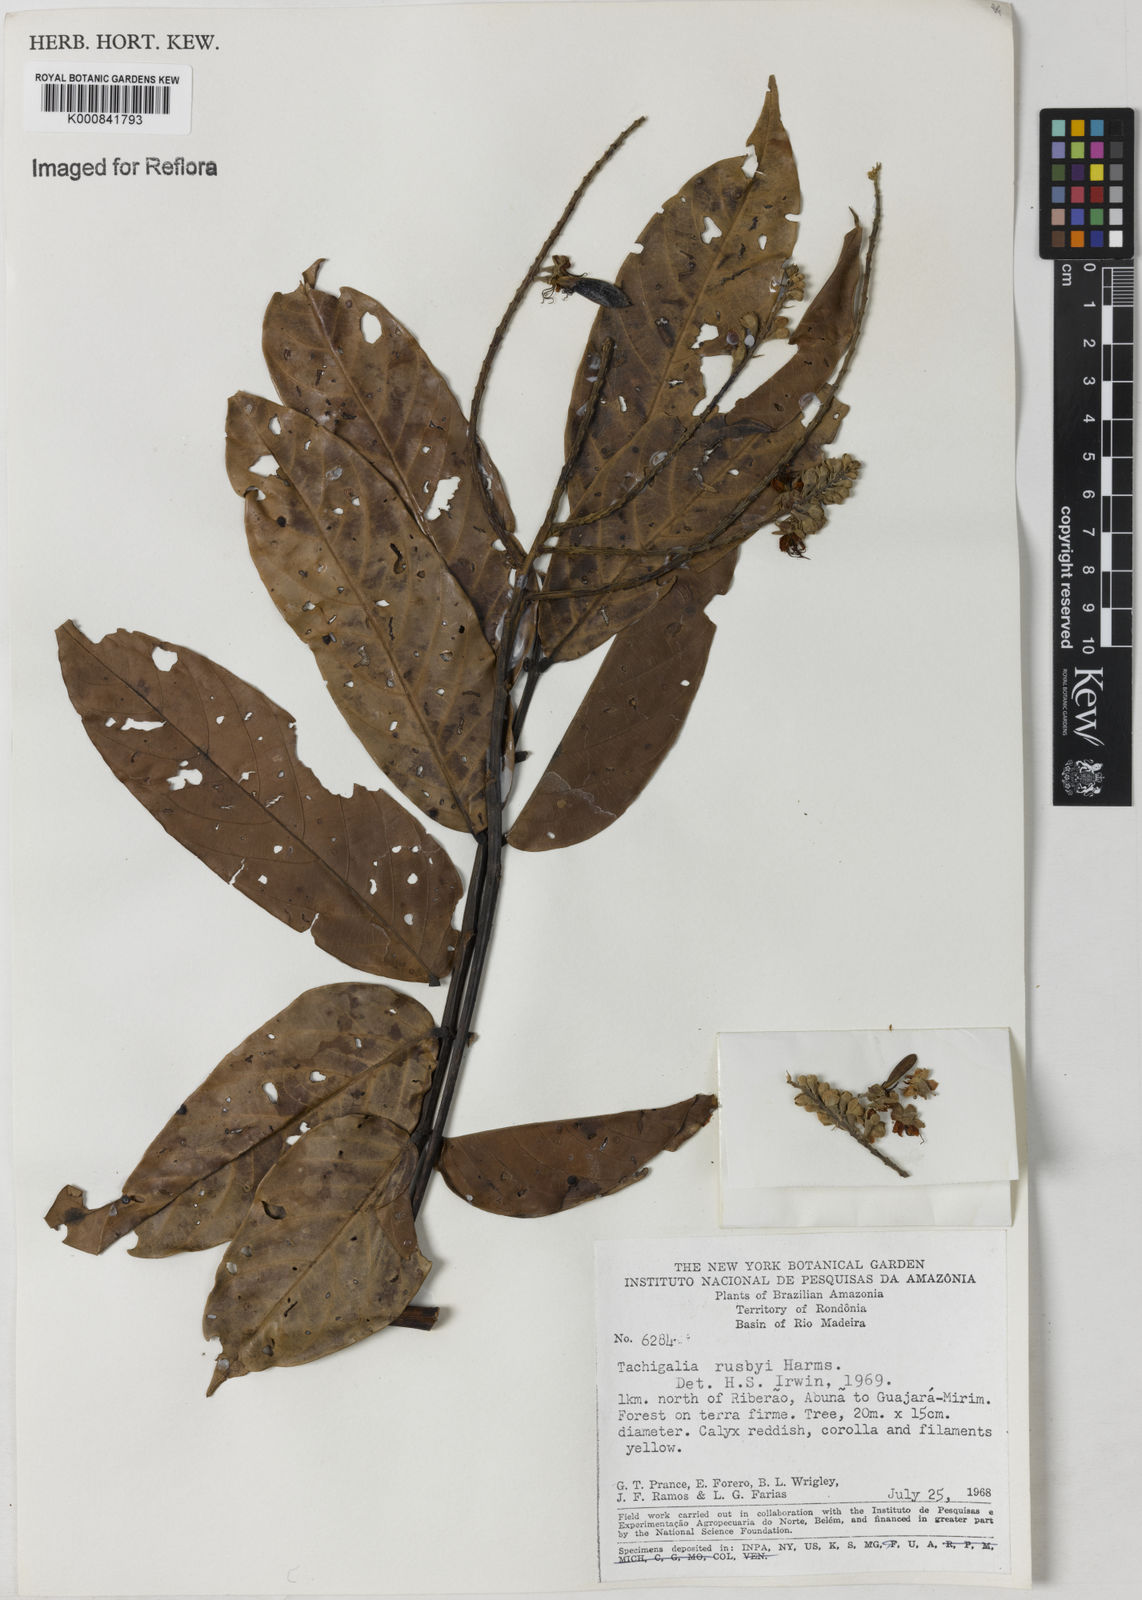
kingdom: Plantae
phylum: Tracheophyta
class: Magnoliopsida
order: Fabales
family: Fabaceae
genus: Tachigali
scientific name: Tachigali paniculata
